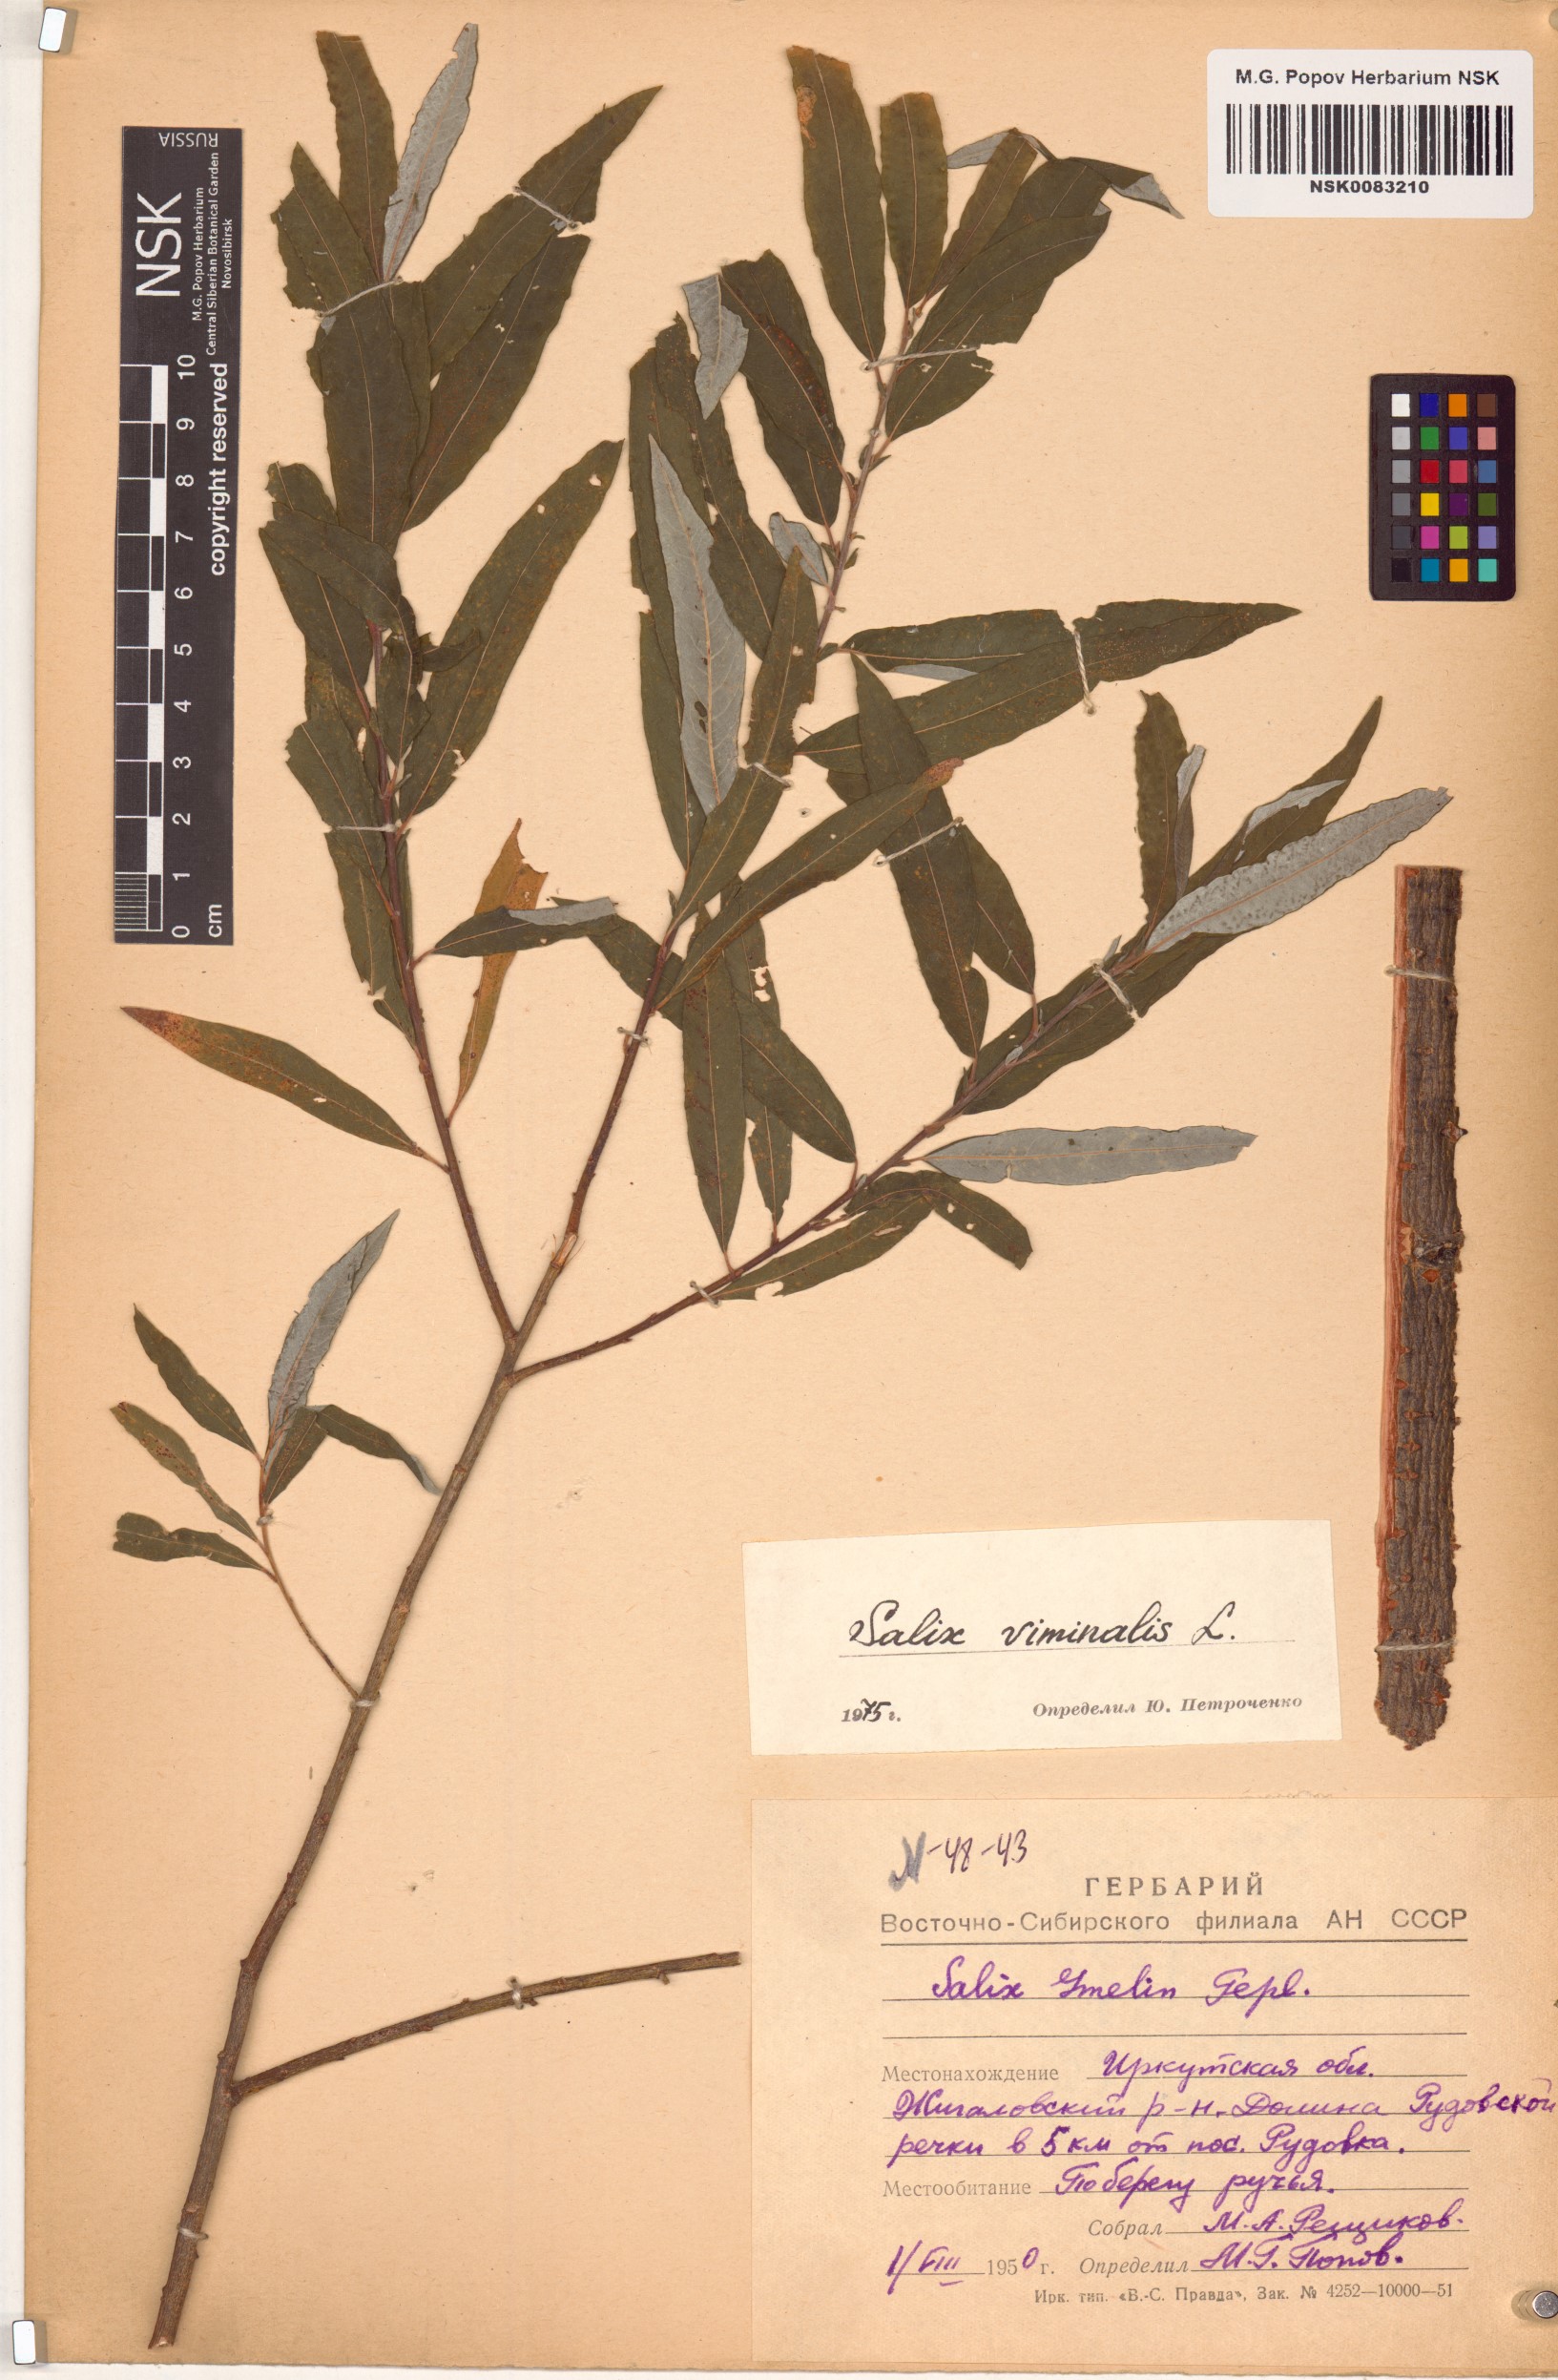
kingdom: Plantae
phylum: Tracheophyta
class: Magnoliopsida
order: Malpighiales
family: Salicaceae
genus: Salix
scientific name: Salix viminalis
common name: Osier
